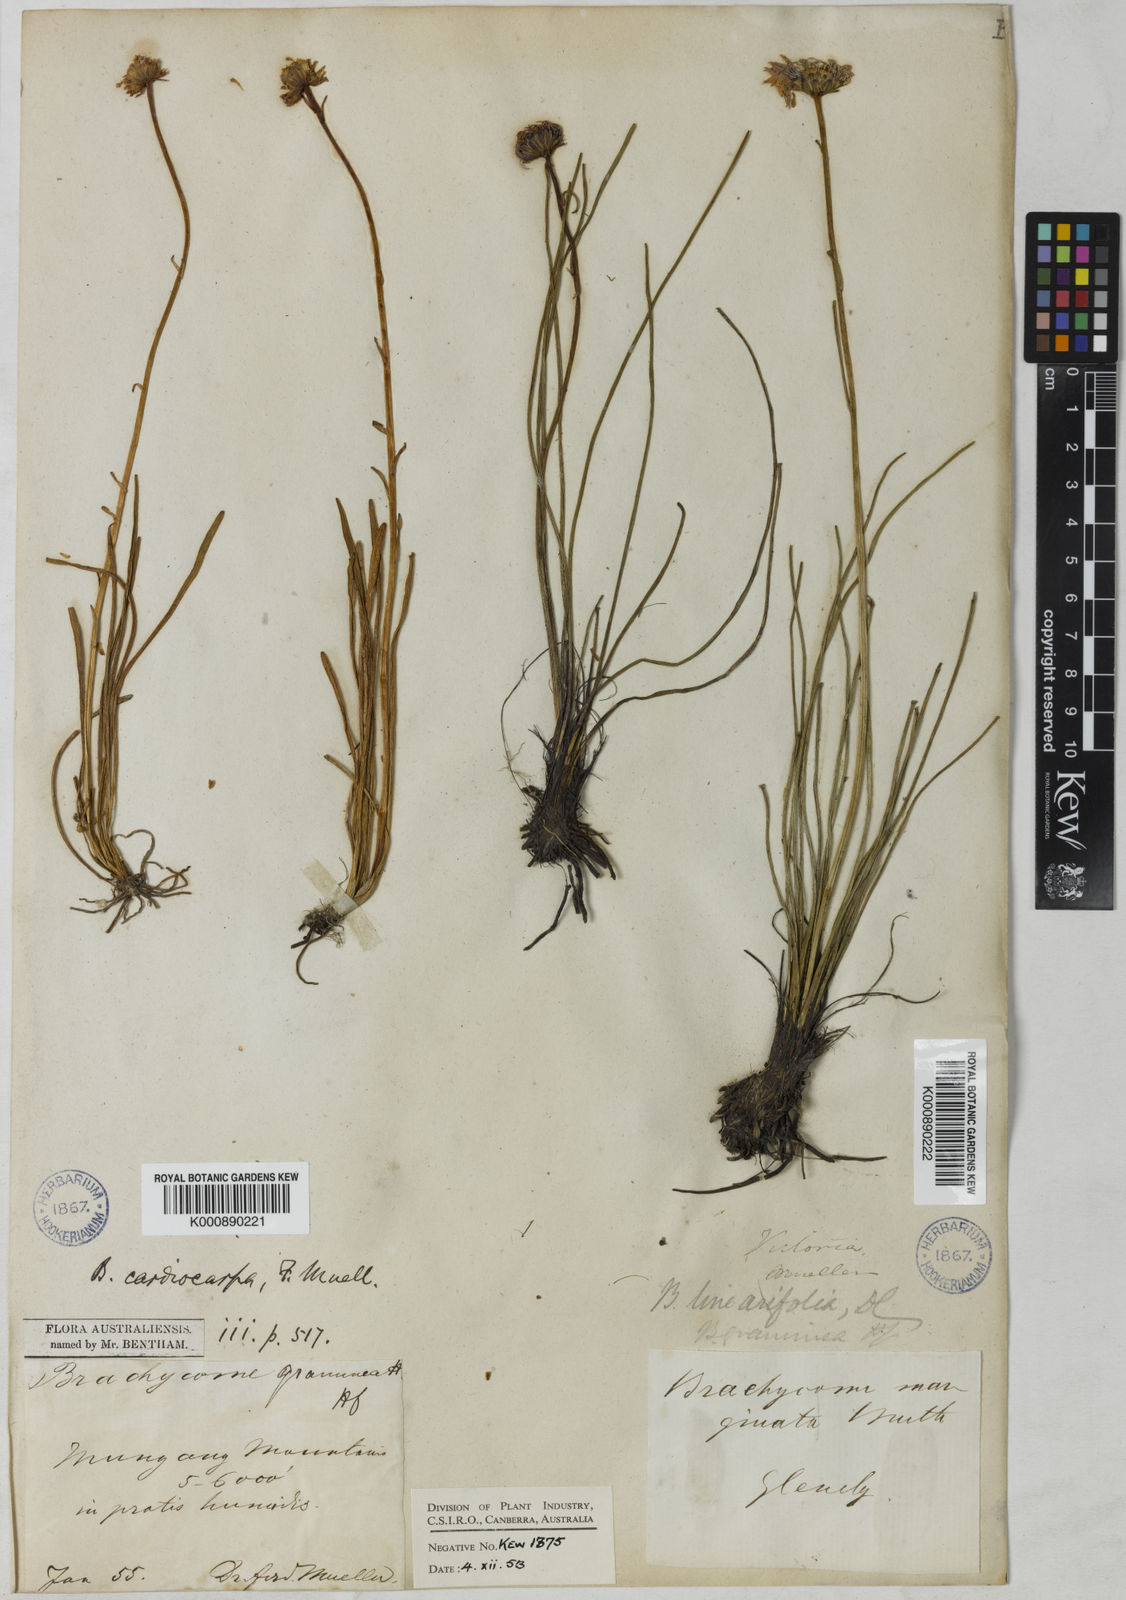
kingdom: Plantae
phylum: Tracheophyta
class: Magnoliopsida
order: Asterales
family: Asteraceae
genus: Allittia
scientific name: Allittia cardiocarpa
